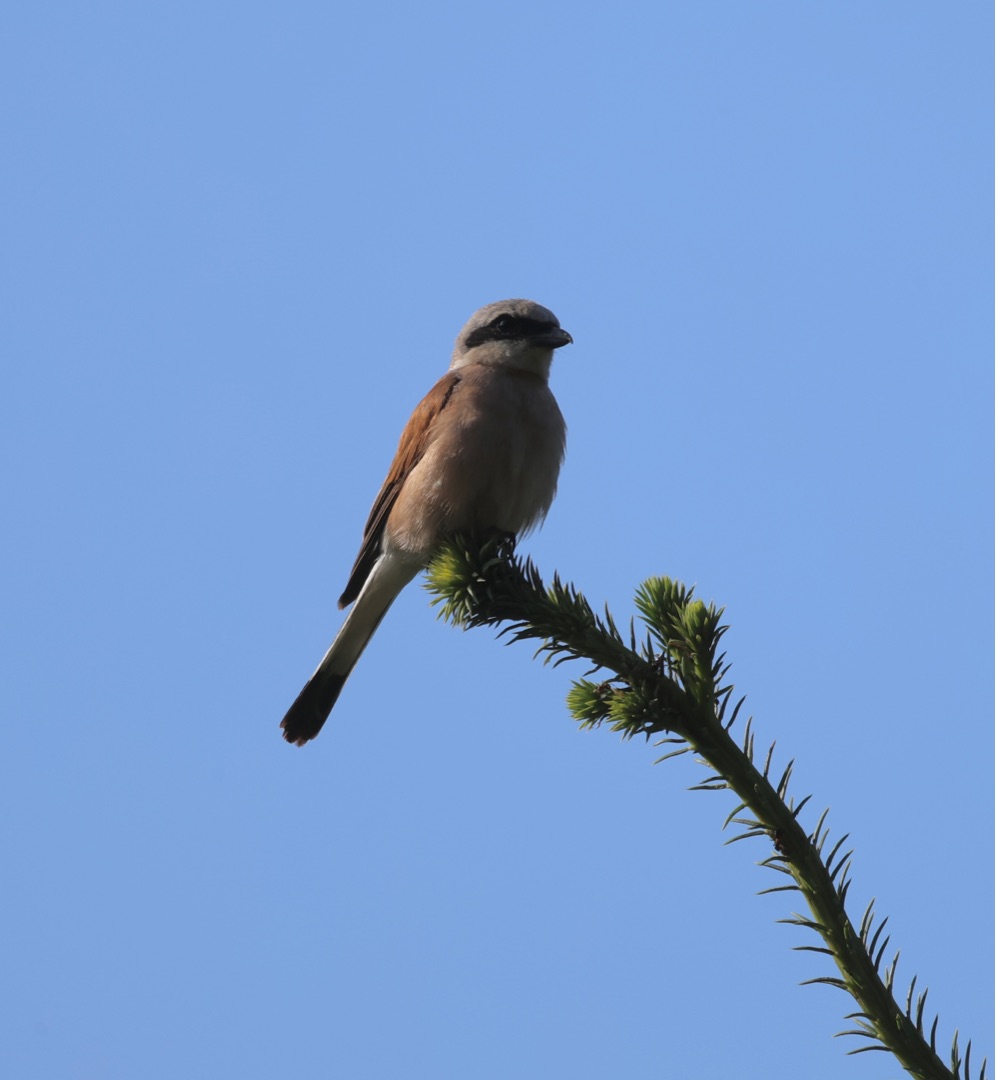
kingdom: Animalia
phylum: Chordata
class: Aves
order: Passeriformes
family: Laniidae
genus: Lanius
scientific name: Lanius collurio
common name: Rødrygget tornskade
